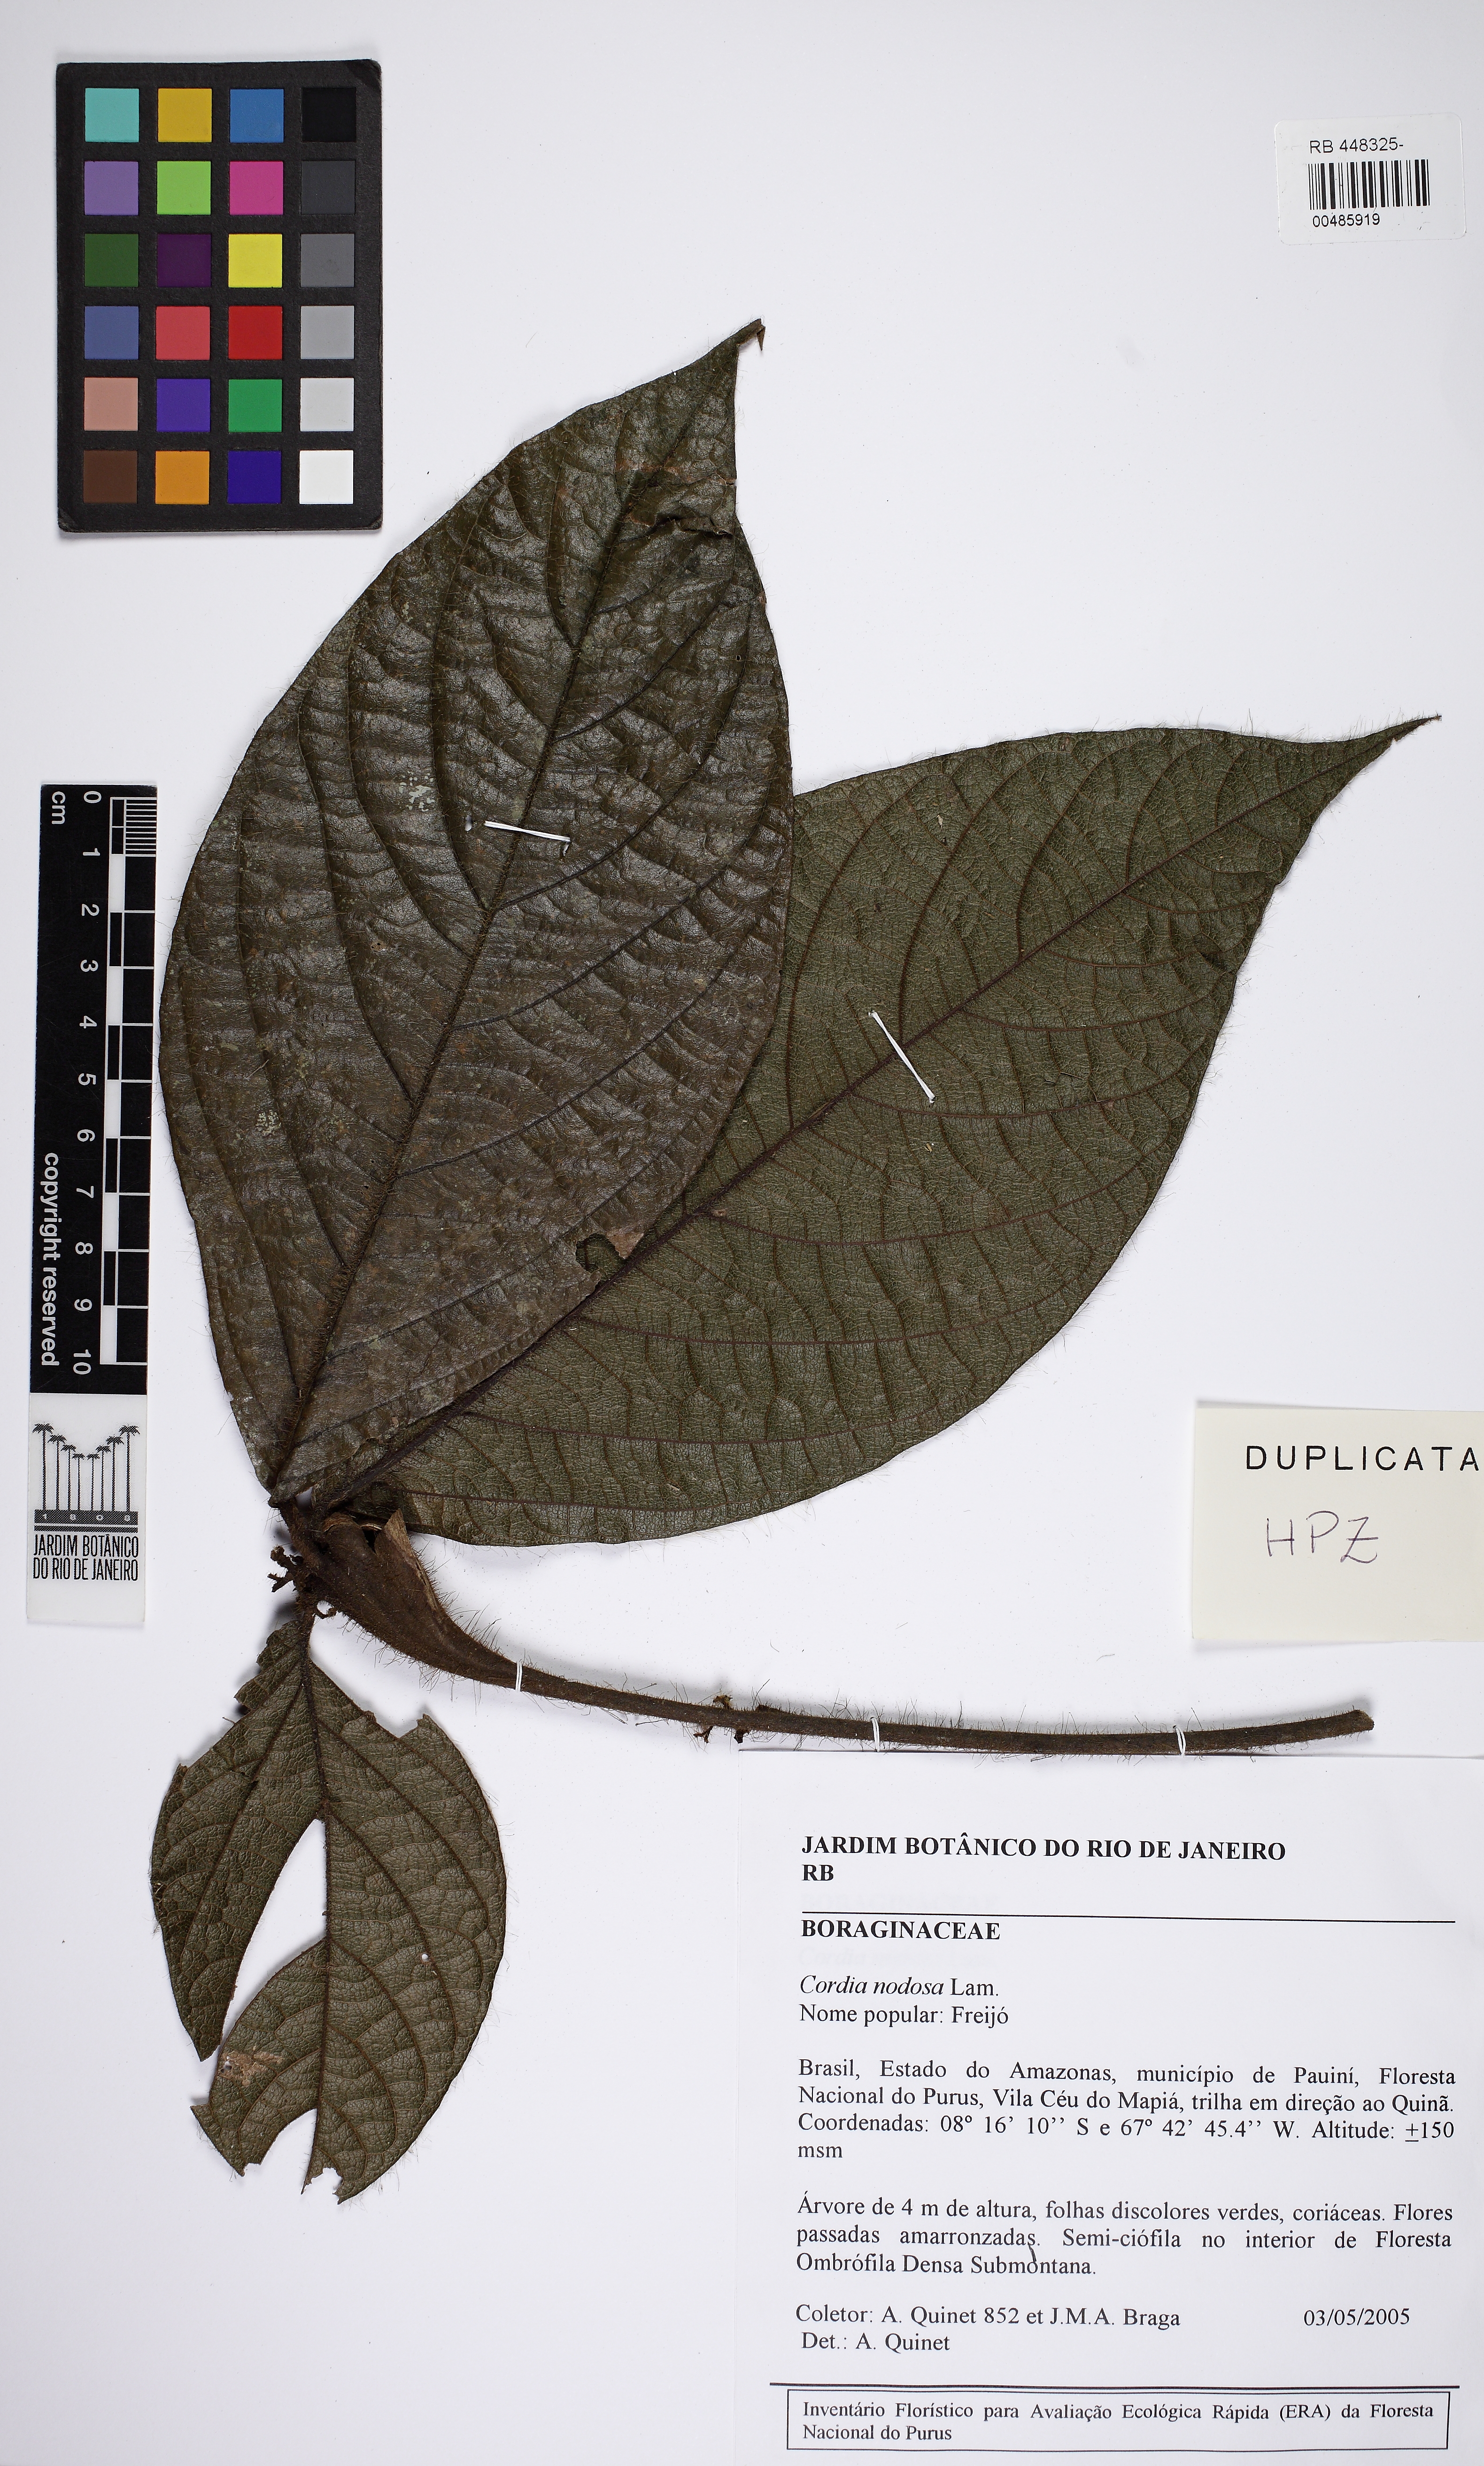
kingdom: Plantae
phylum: Tracheophyta
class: Magnoliopsida
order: Boraginales
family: Cordiaceae
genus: Cordia
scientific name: Cordia nodosa
